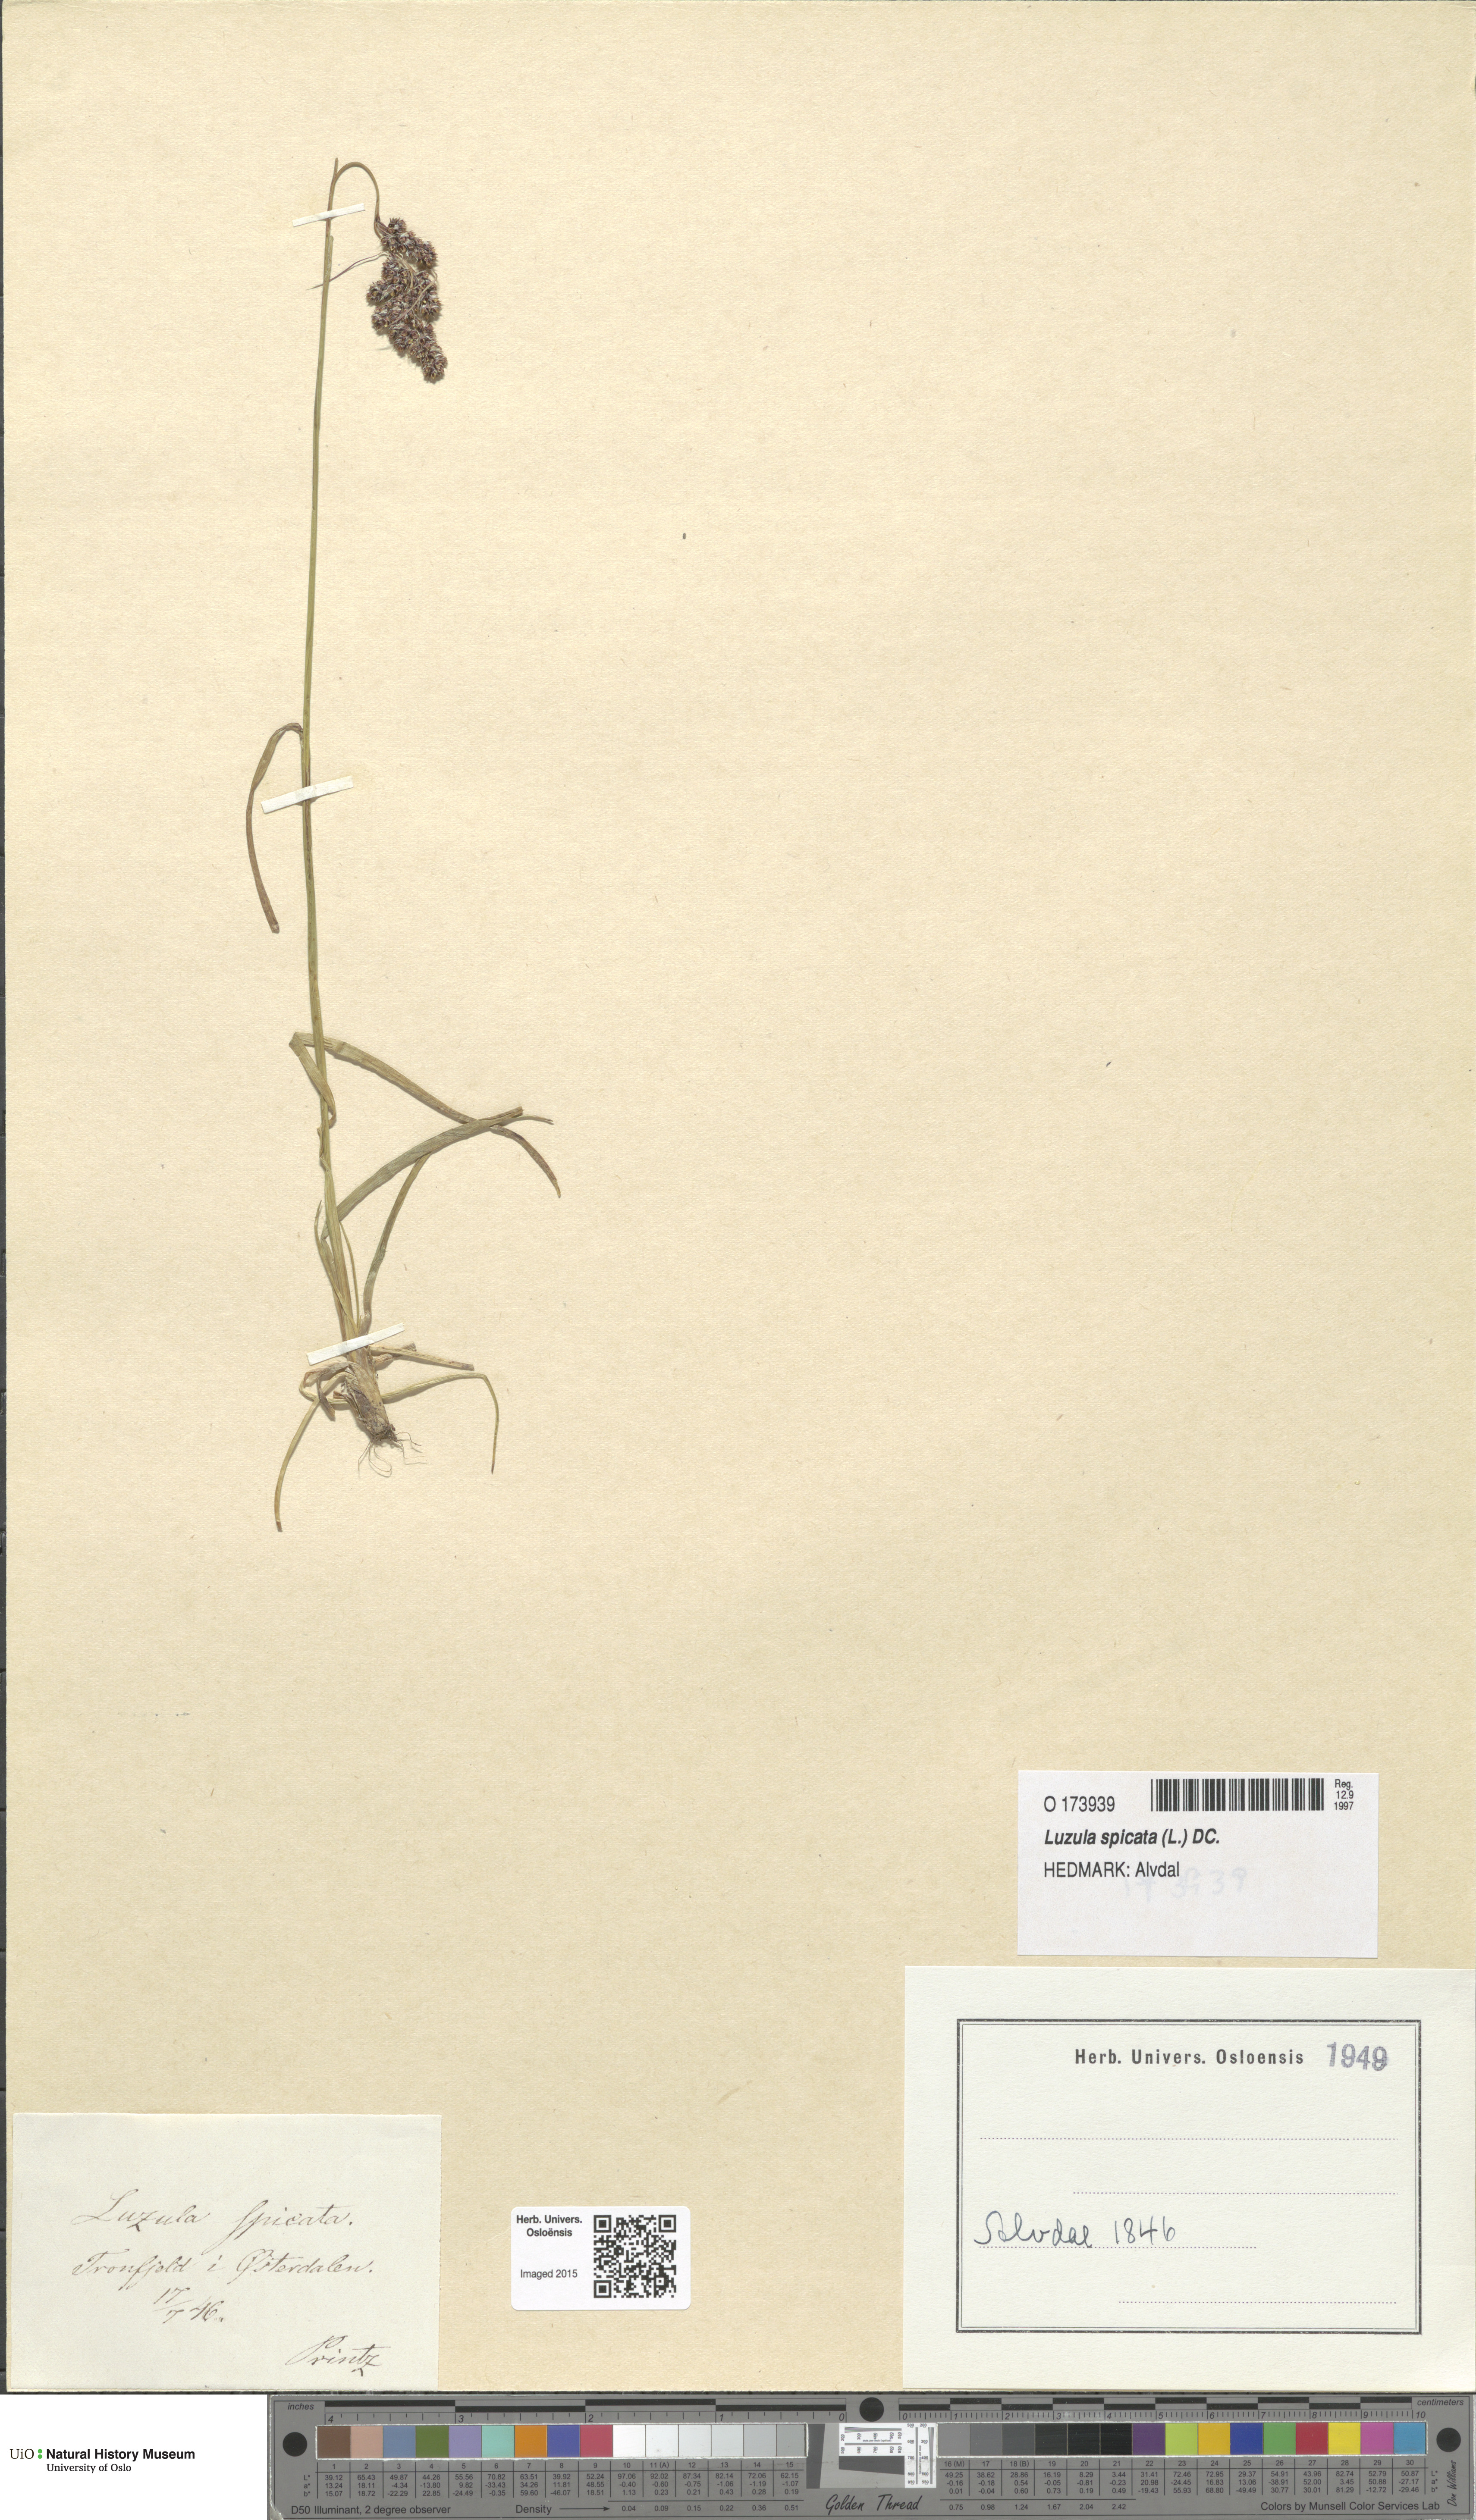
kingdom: Plantae
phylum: Tracheophyta
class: Liliopsida
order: Poales
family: Juncaceae
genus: Luzula
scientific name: Luzula spicata
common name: Spiked wood-rush
